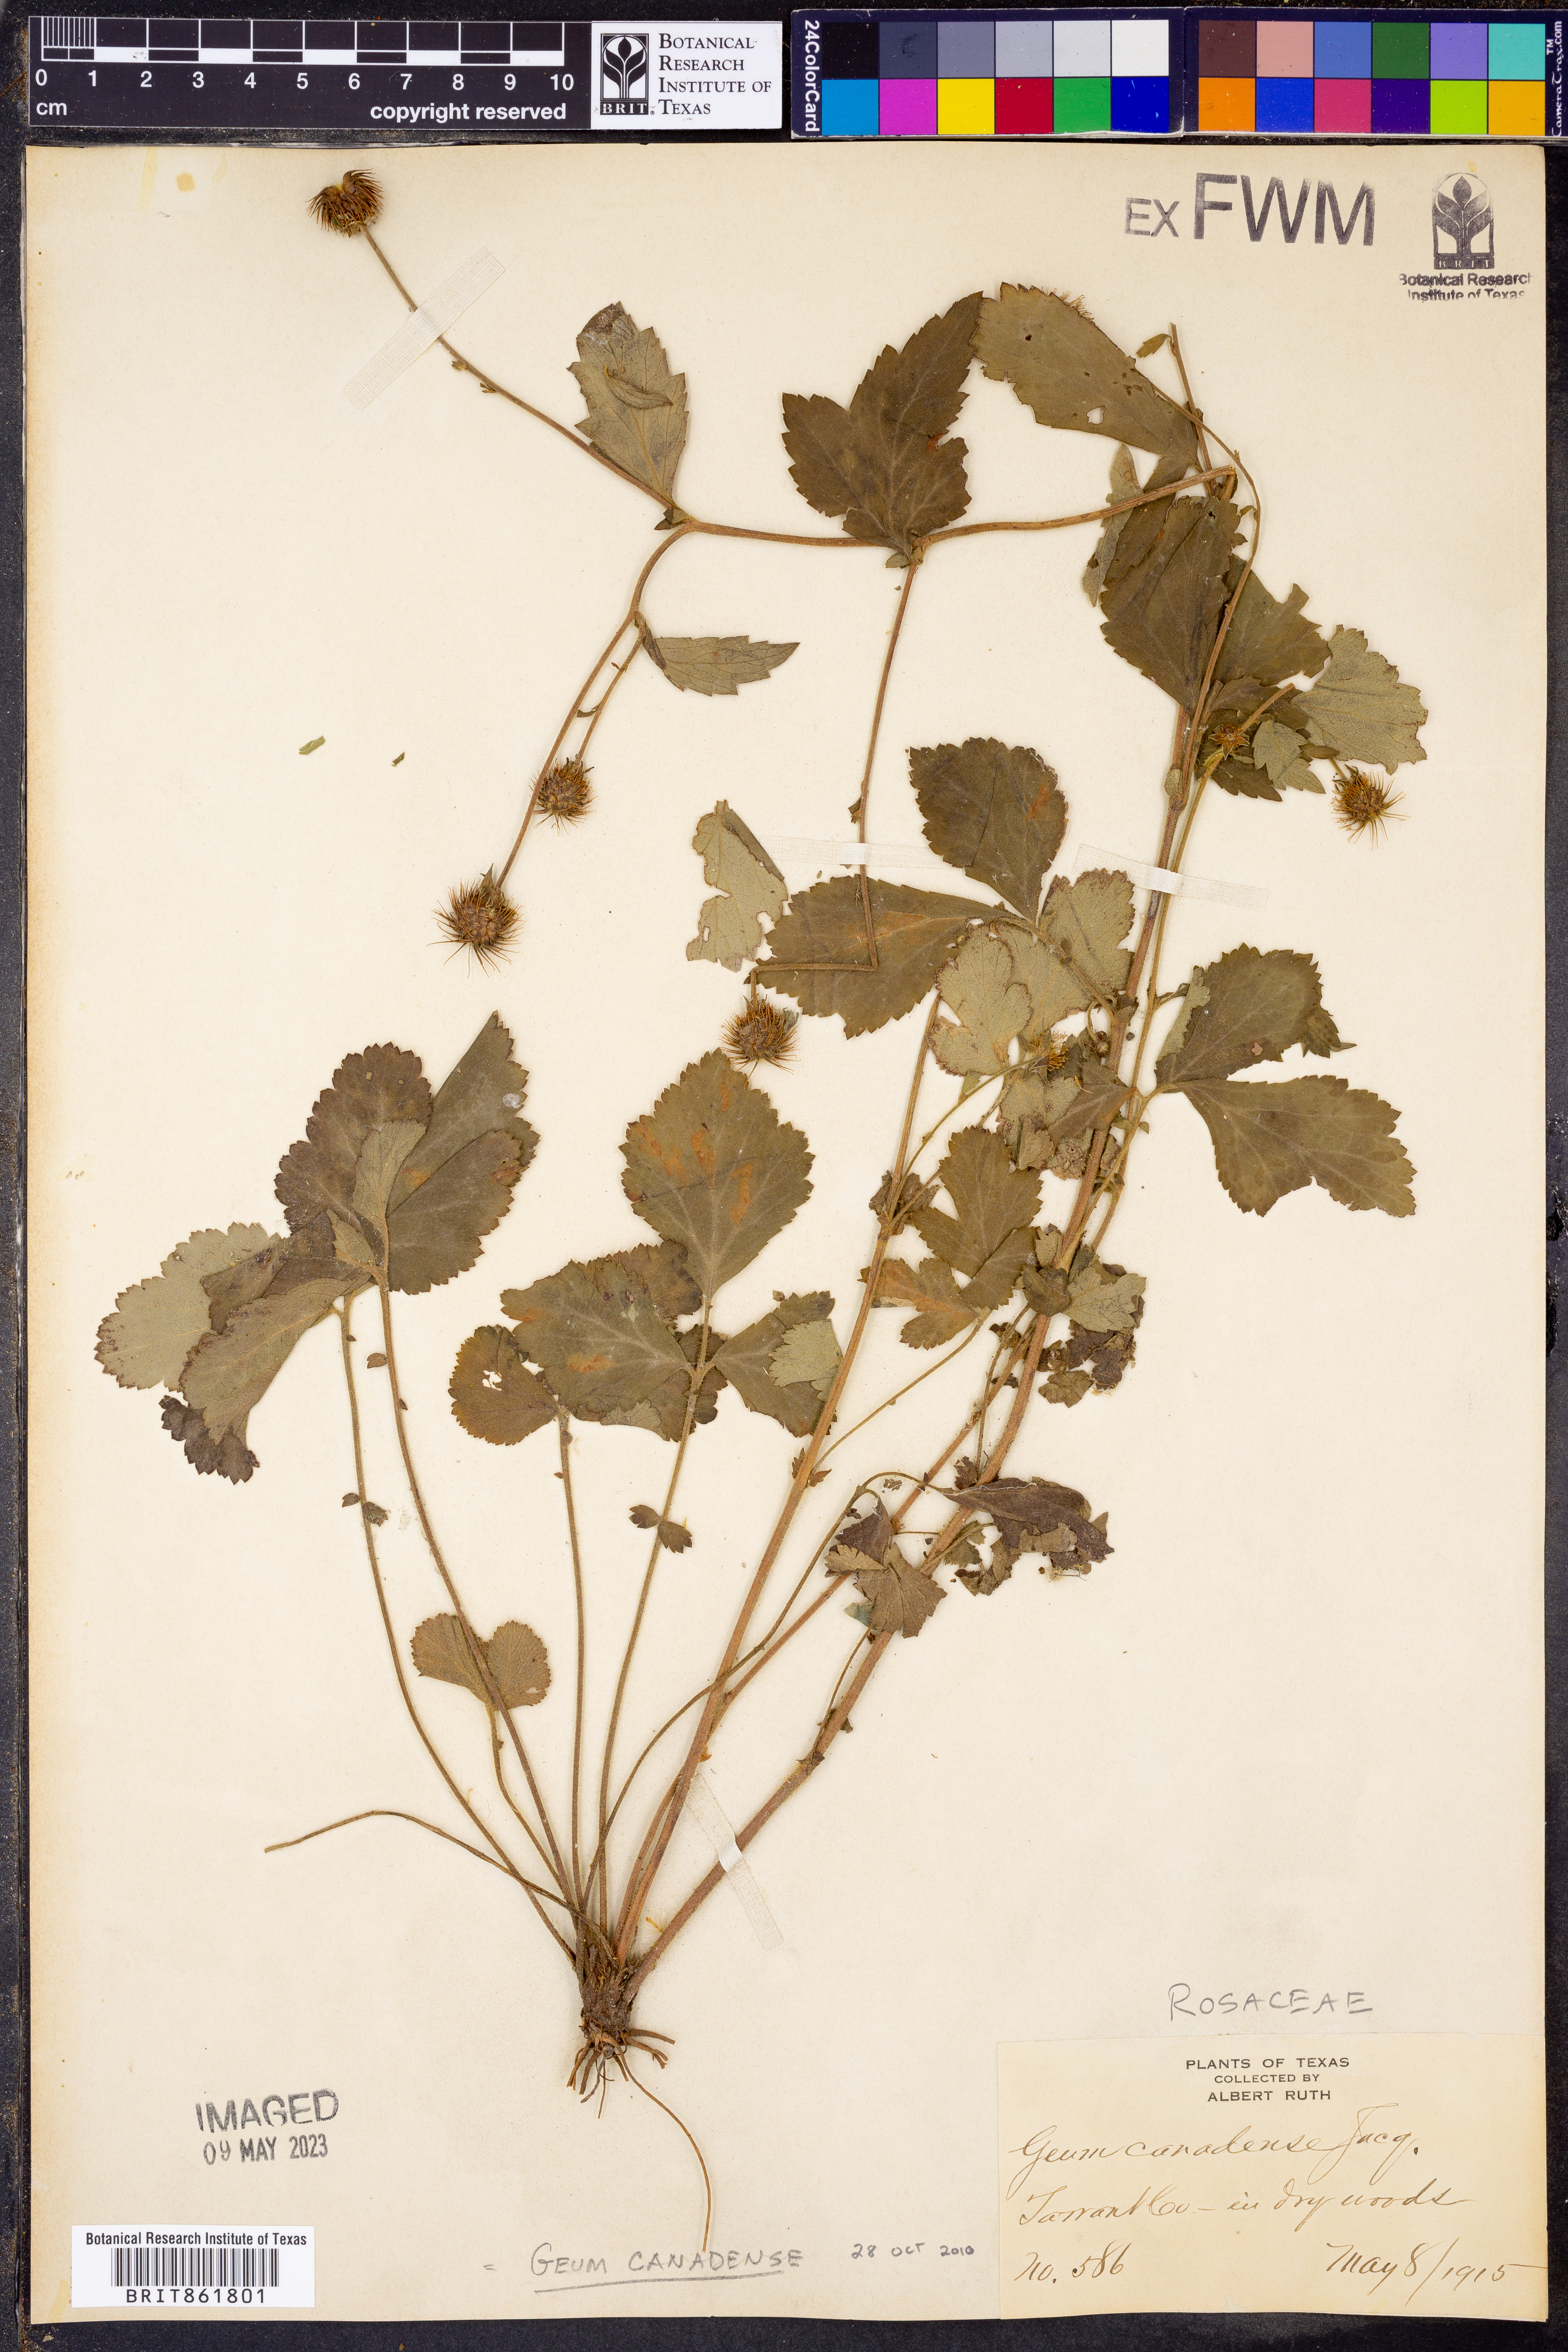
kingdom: Plantae
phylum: Tracheophyta
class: Magnoliopsida
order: Rosales
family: Rosaceae
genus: Geum
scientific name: Geum canadense
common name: White avens
